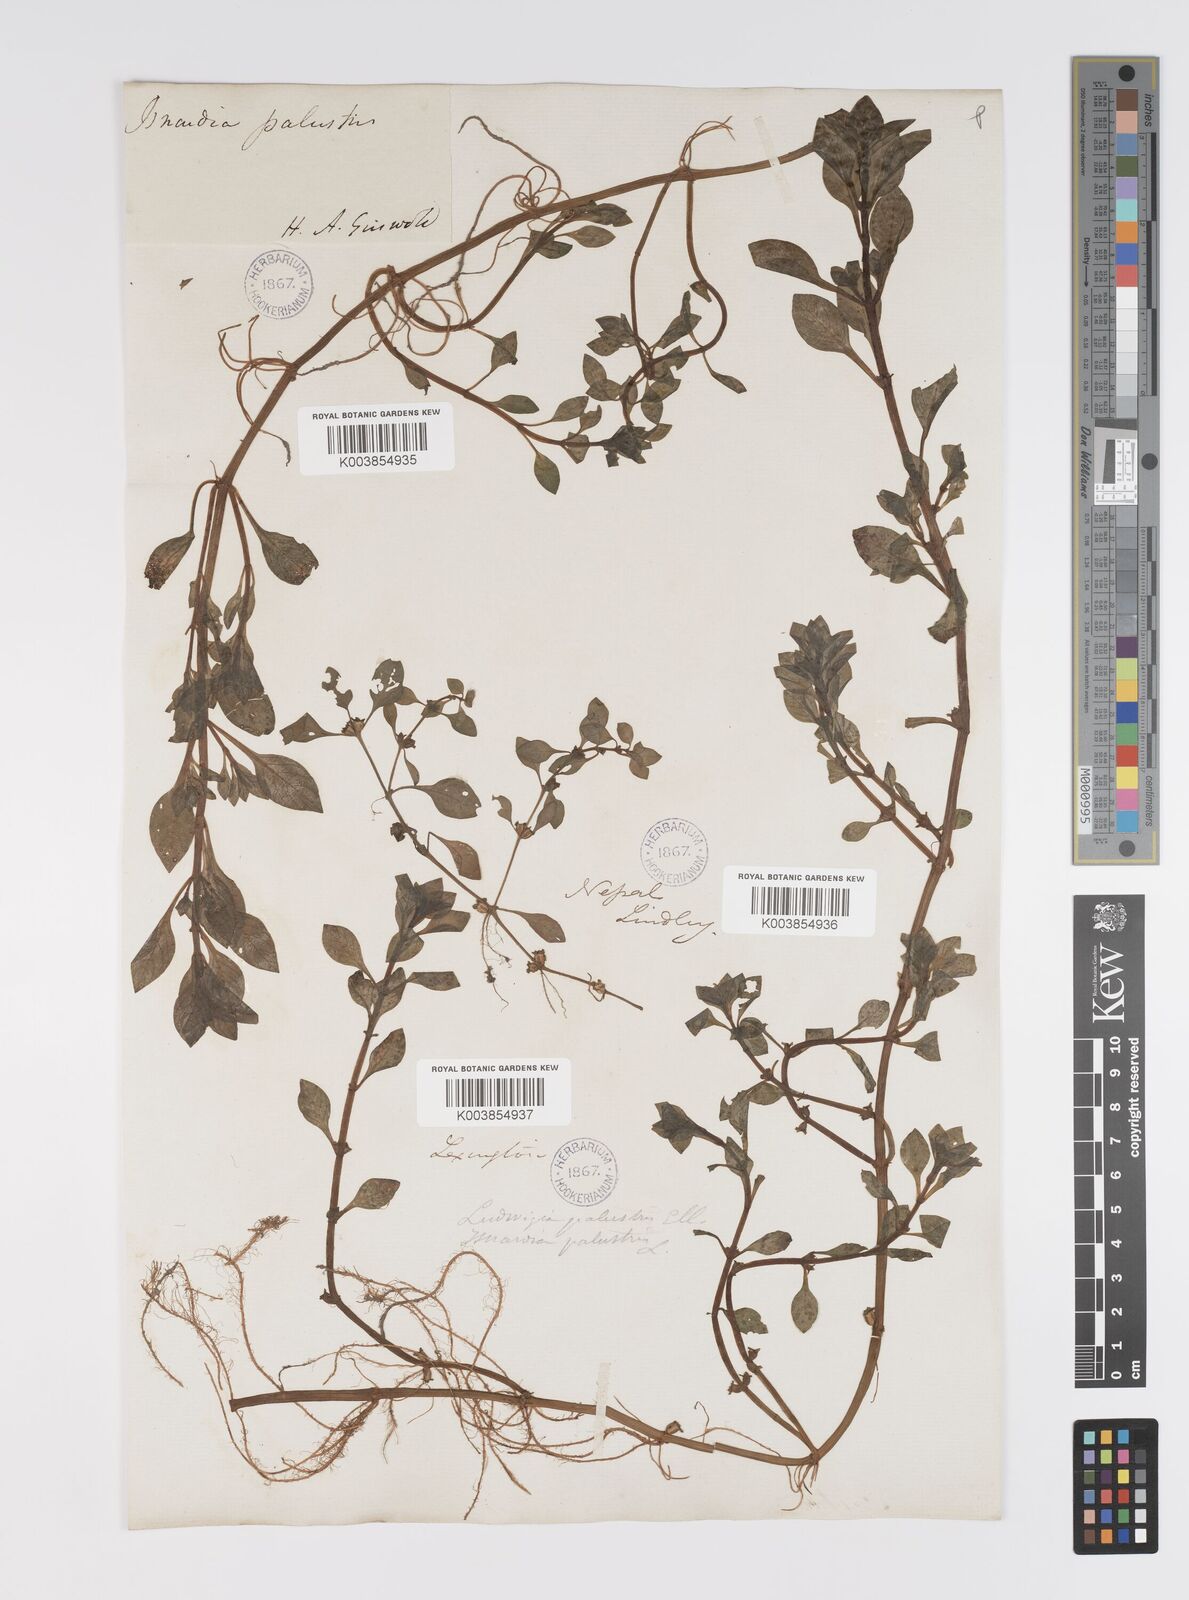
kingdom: Plantae
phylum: Tracheophyta
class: Magnoliopsida
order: Myrtales
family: Onagraceae
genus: Ludwigia
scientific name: Ludwigia palustris
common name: Hampshire-purslane
